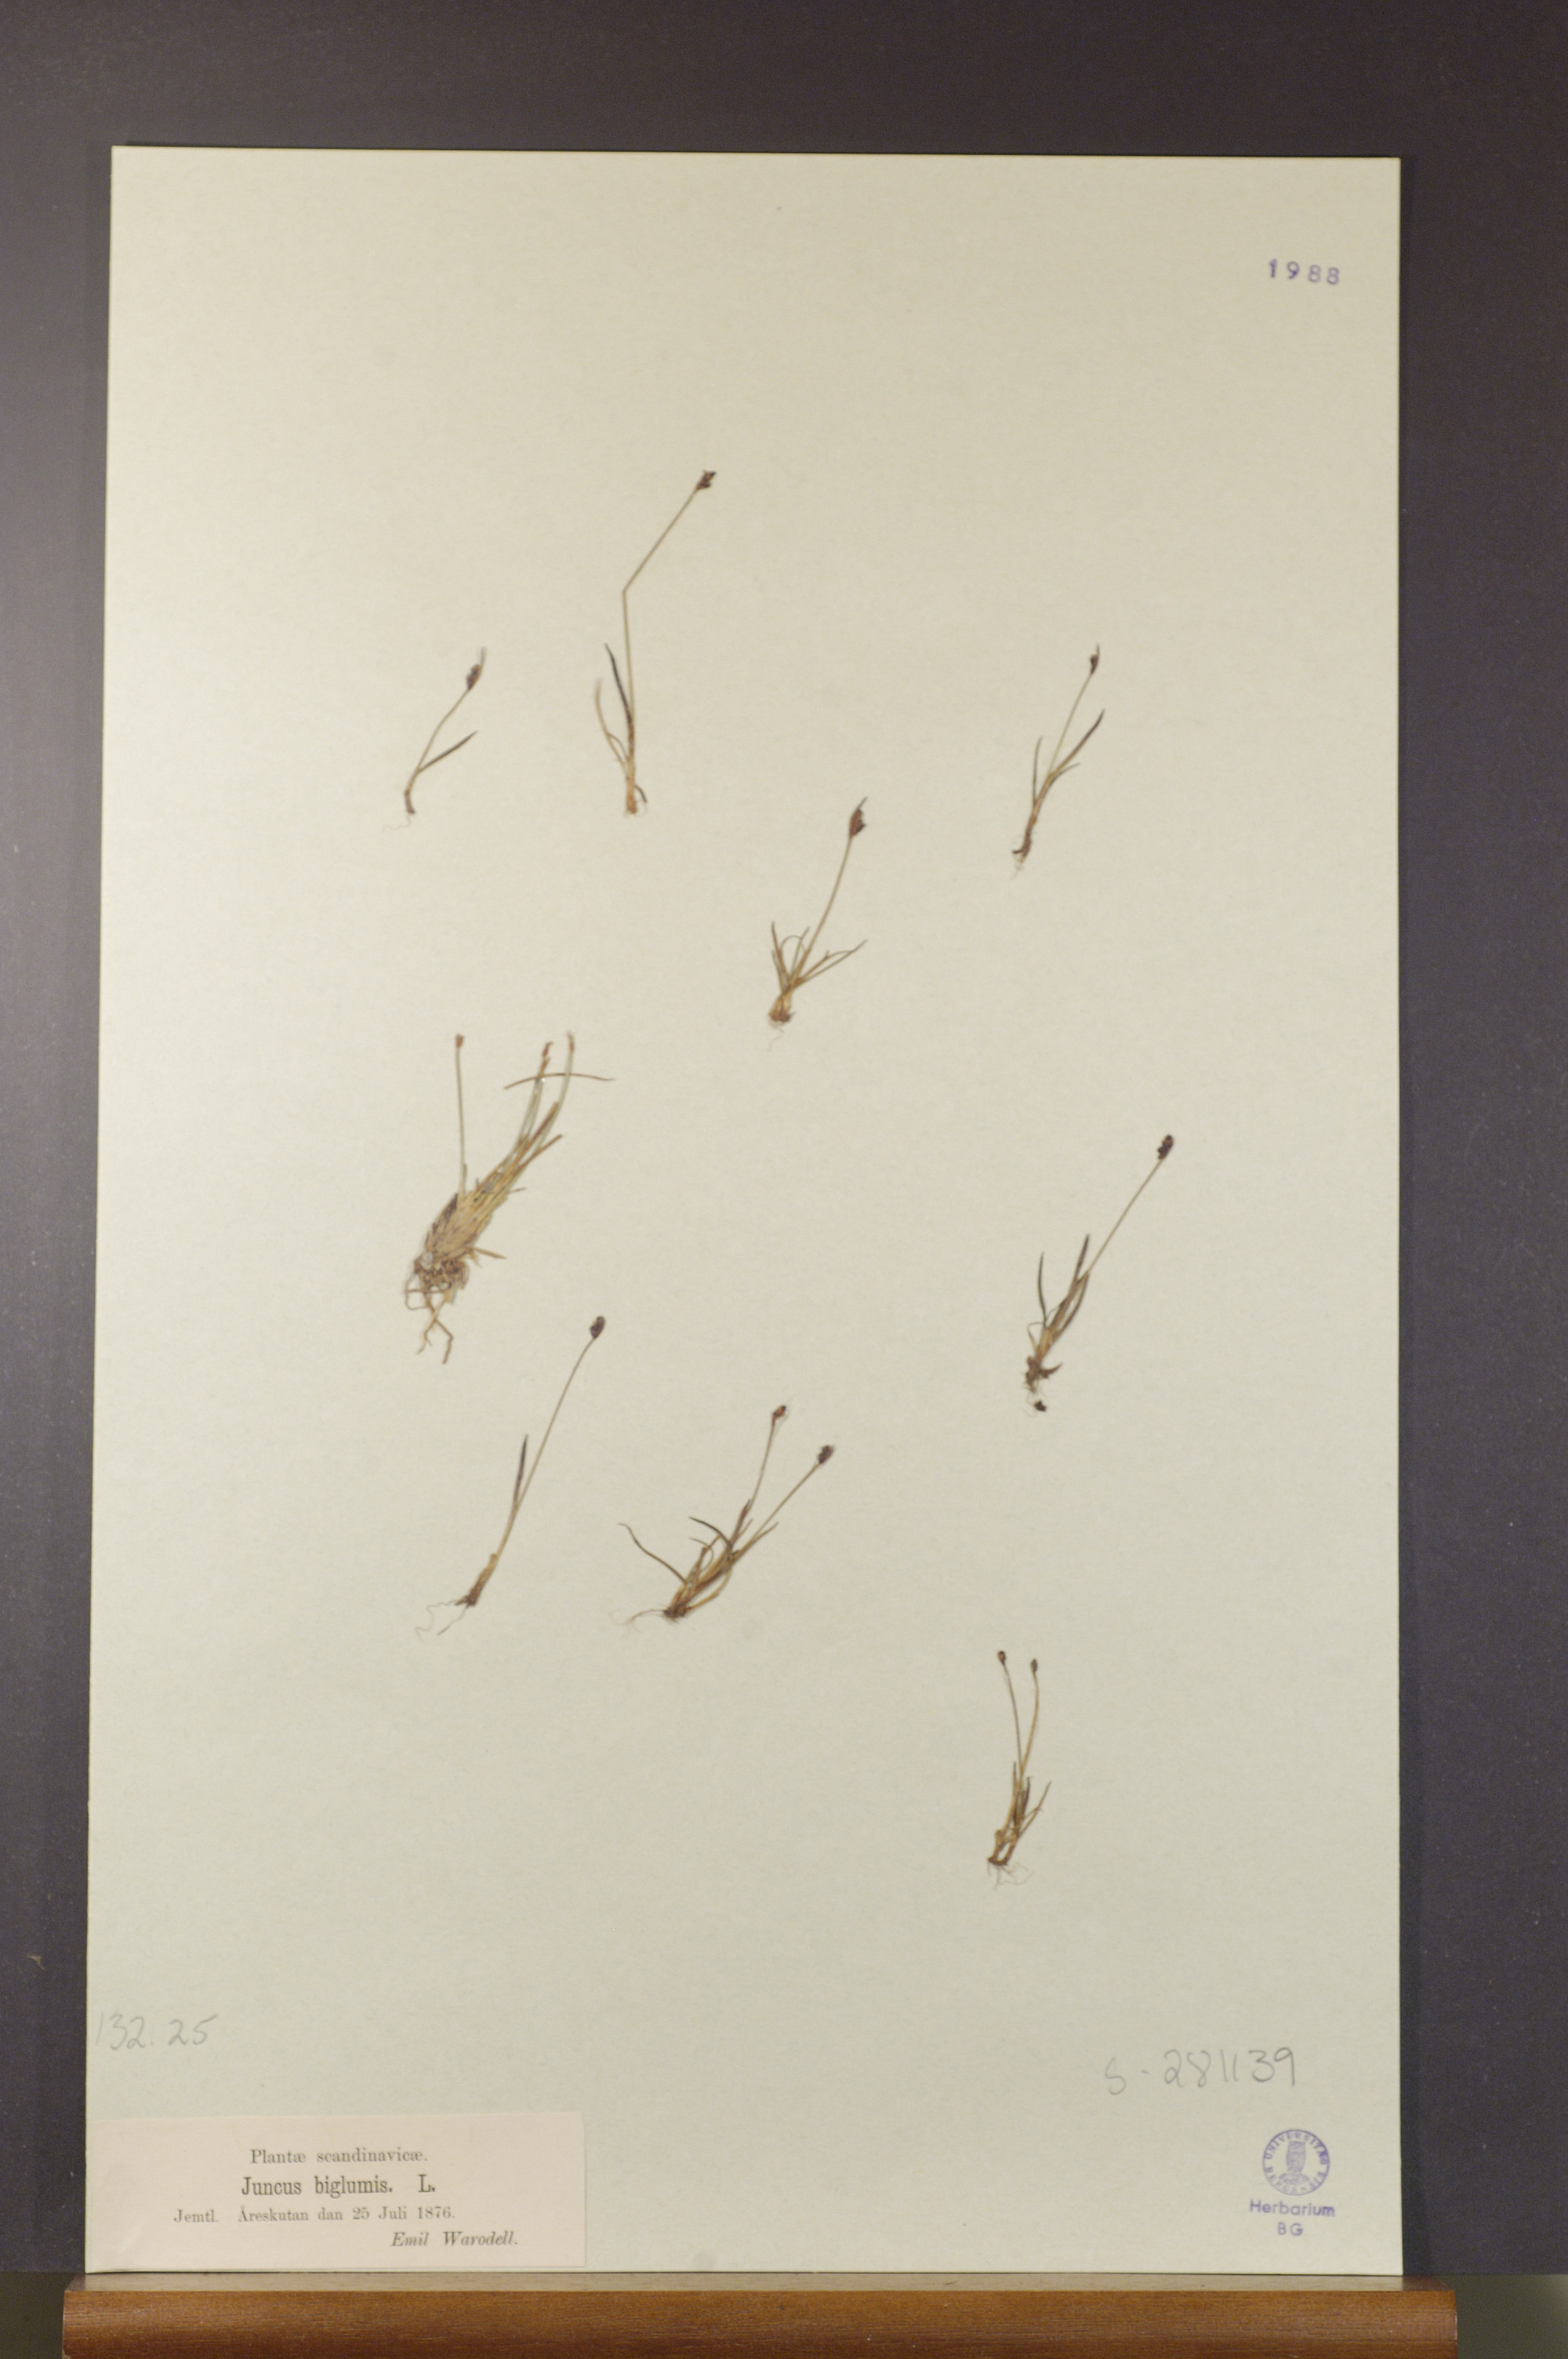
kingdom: Plantae
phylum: Tracheophyta
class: Liliopsida
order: Poales
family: Juncaceae
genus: Juncus
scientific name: Juncus biglumis
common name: Two-flowered rush
